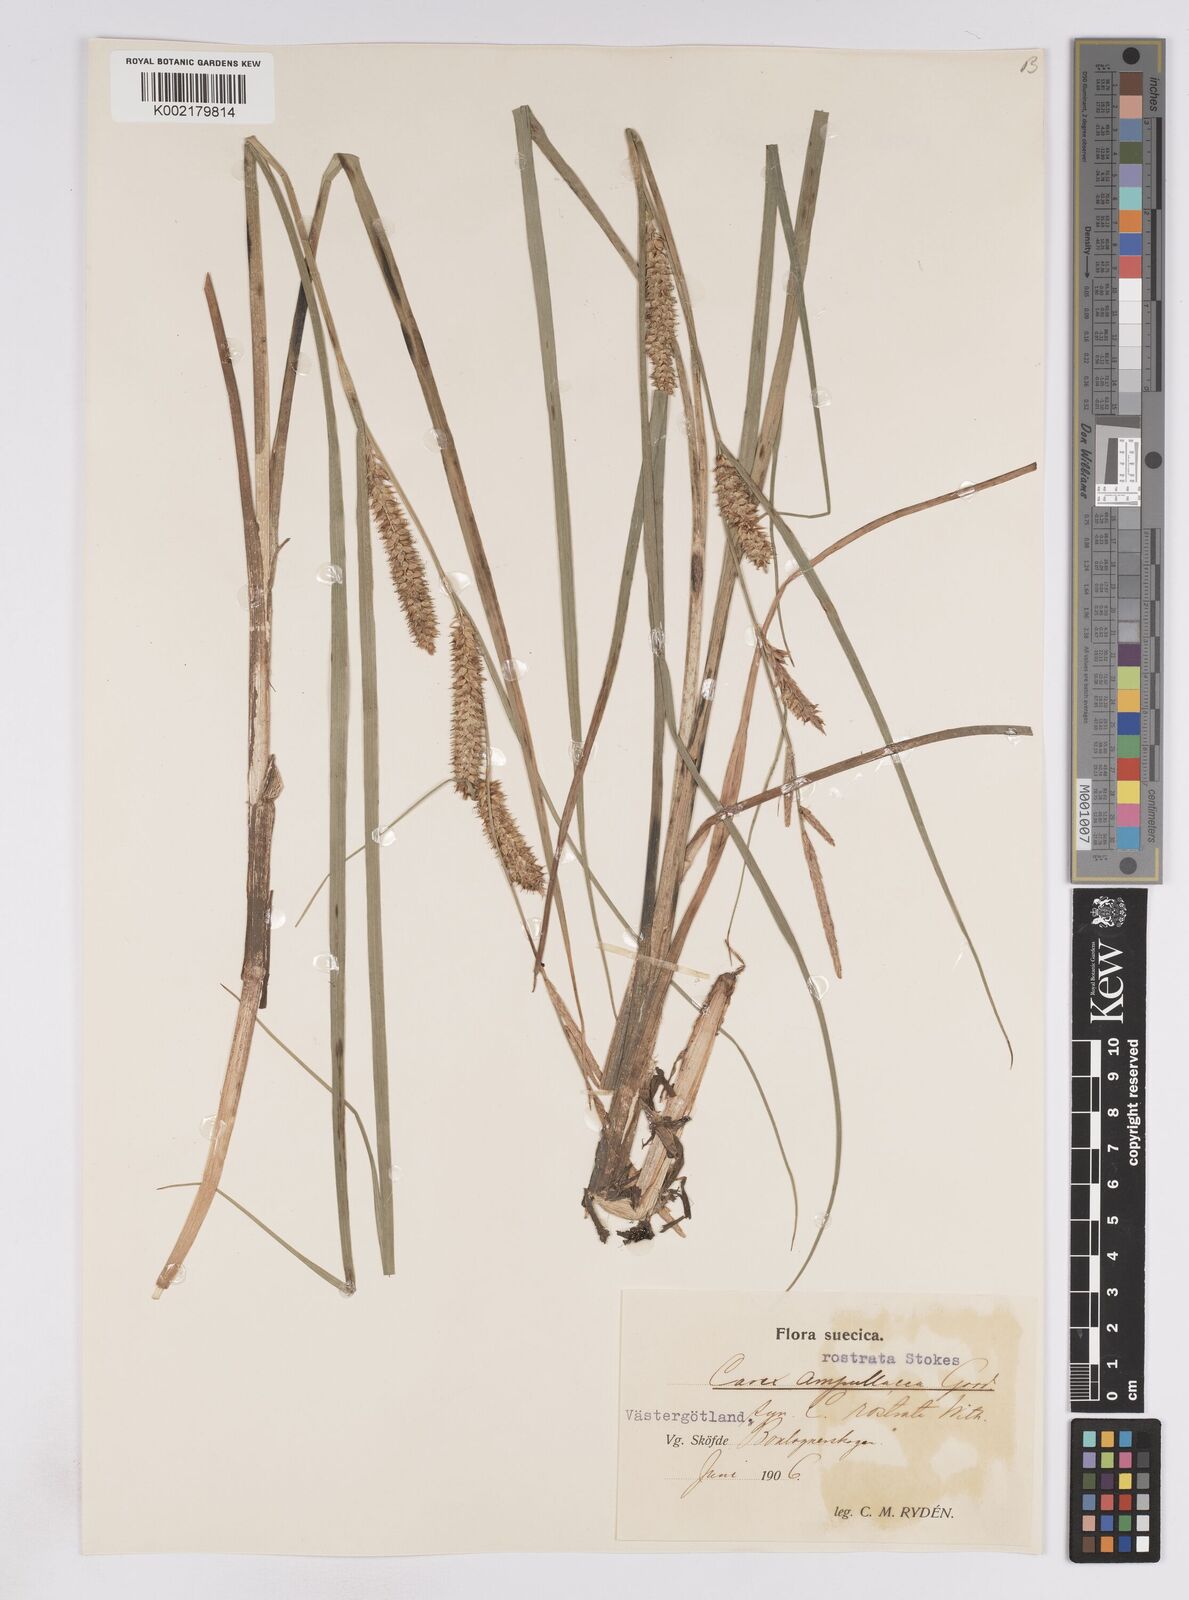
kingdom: Plantae
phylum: Tracheophyta
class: Liliopsida
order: Poales
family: Cyperaceae
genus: Carex
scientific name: Carex rostrata
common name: Bottle sedge
